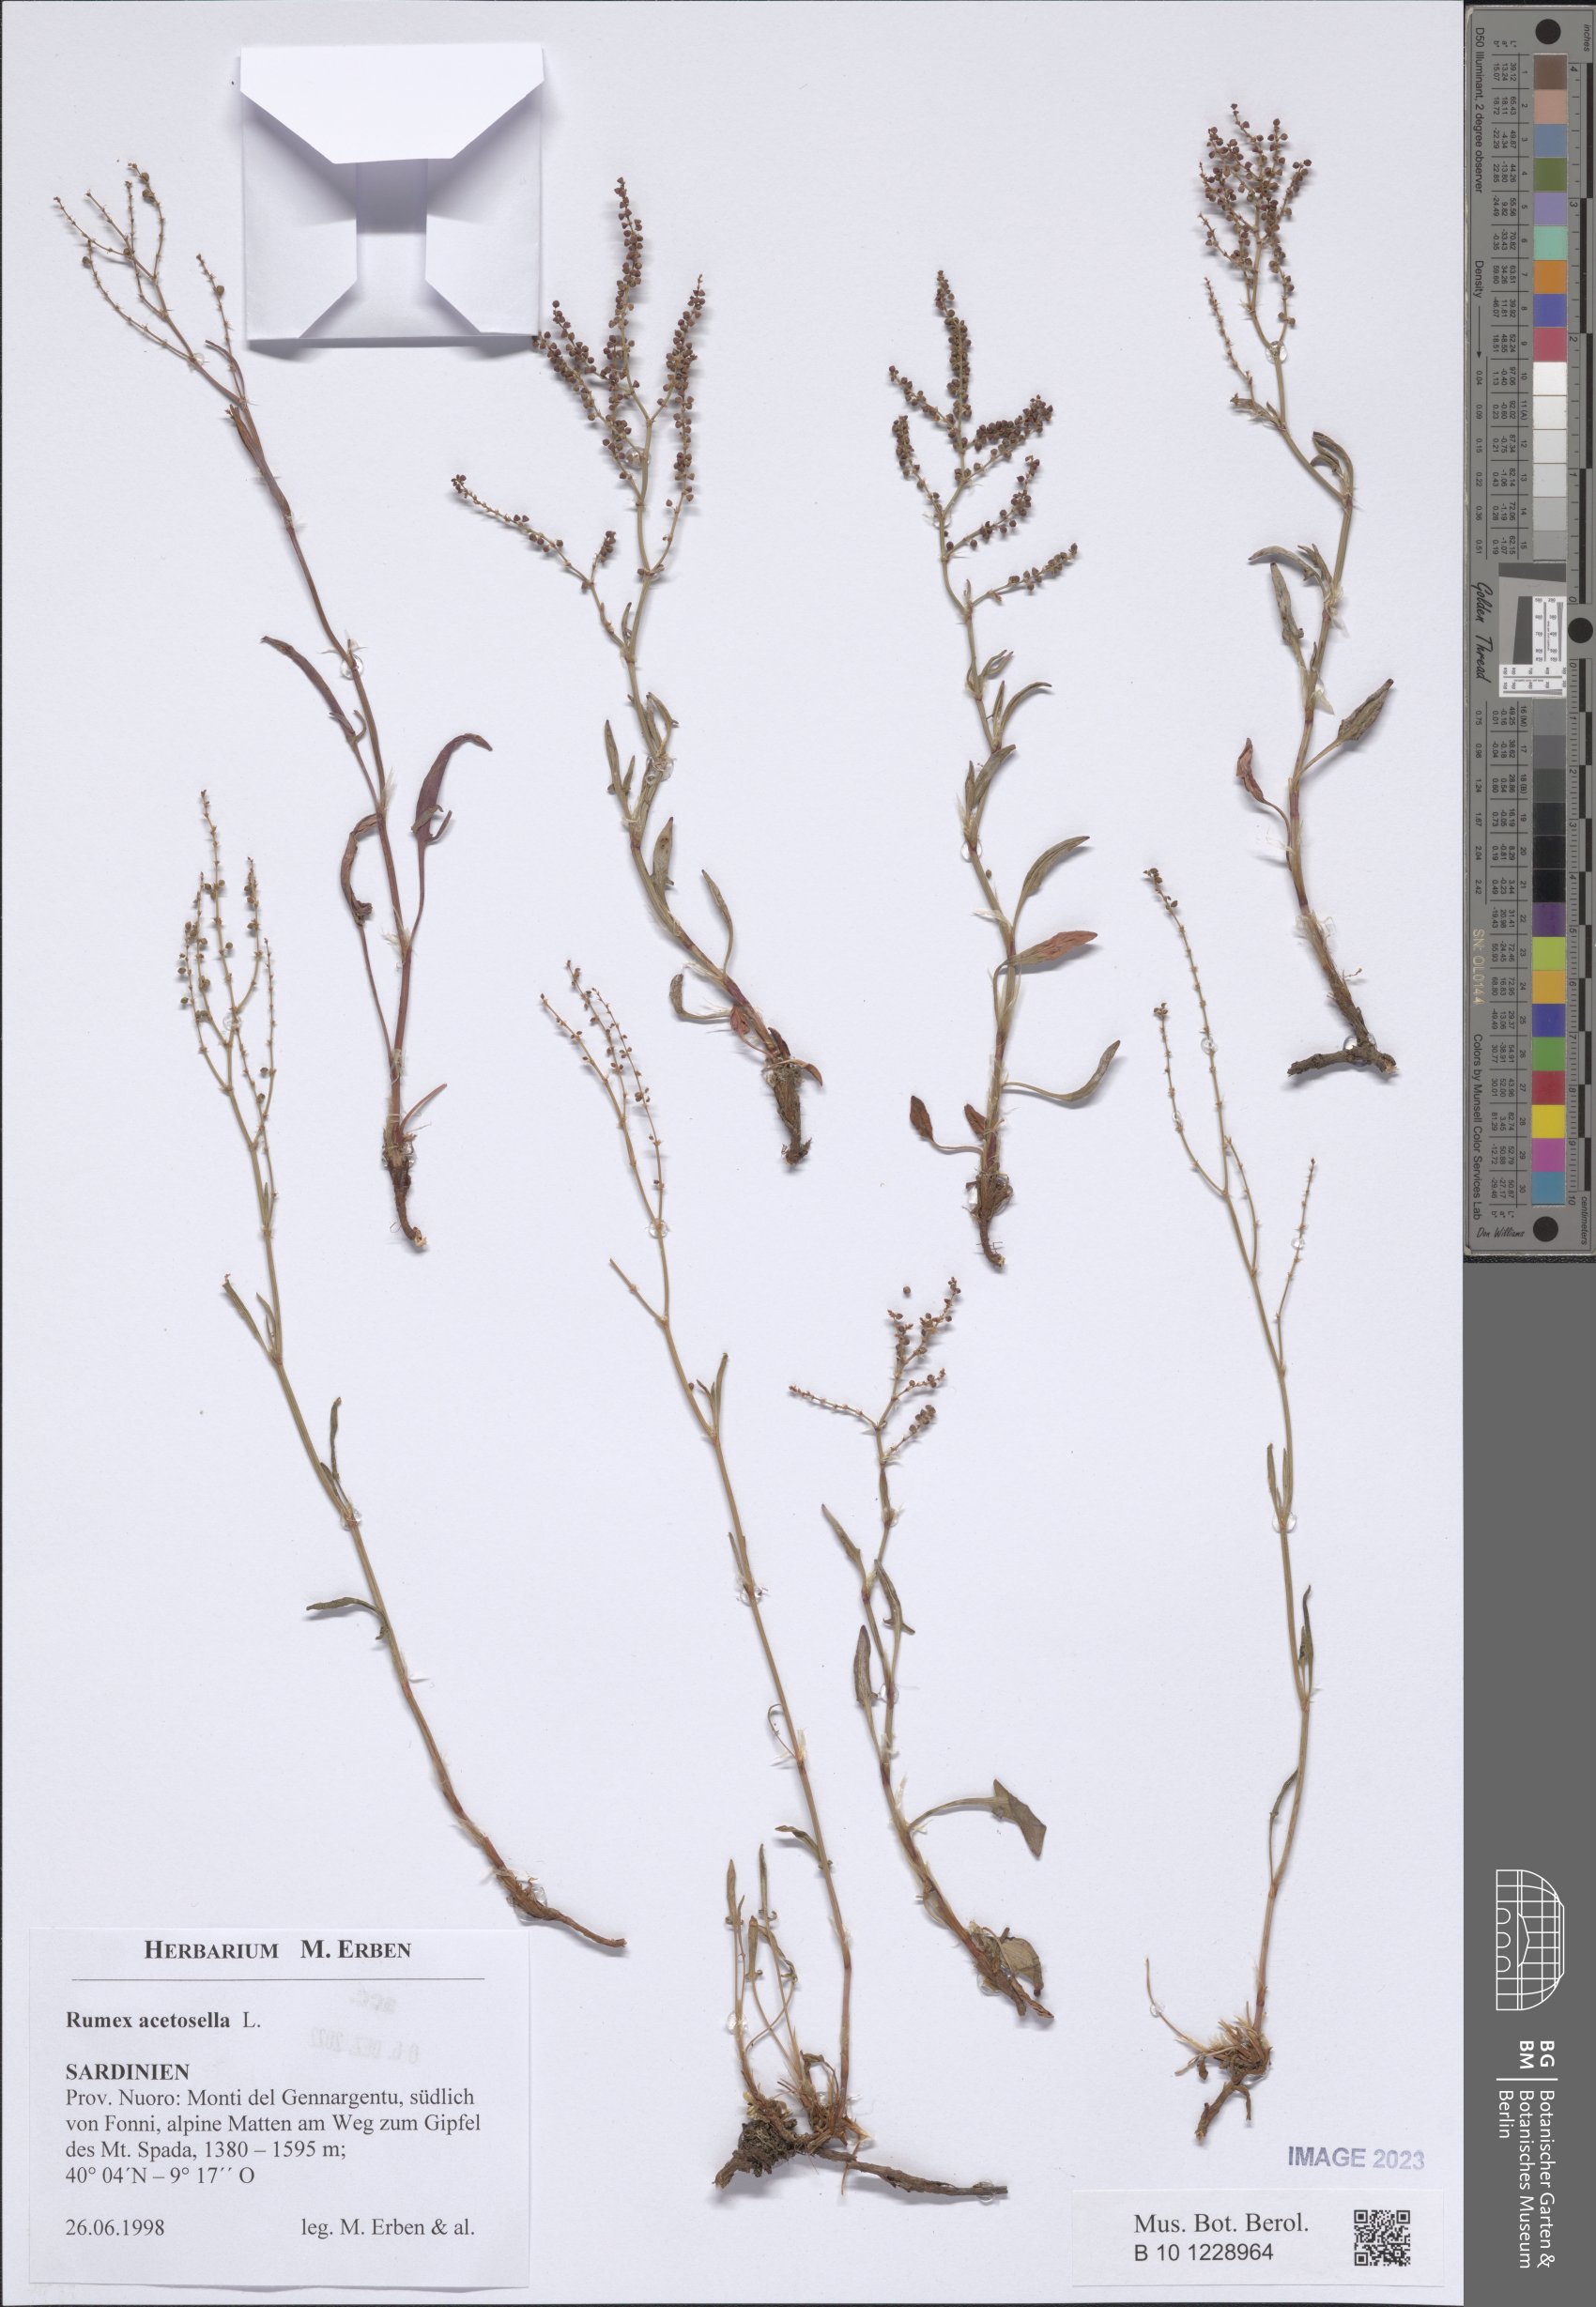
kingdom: Plantae
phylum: Tracheophyta
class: Magnoliopsida
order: Caryophyllales
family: Polygonaceae
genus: Rumex
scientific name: Rumex acetosella
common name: Common sheep sorrel
